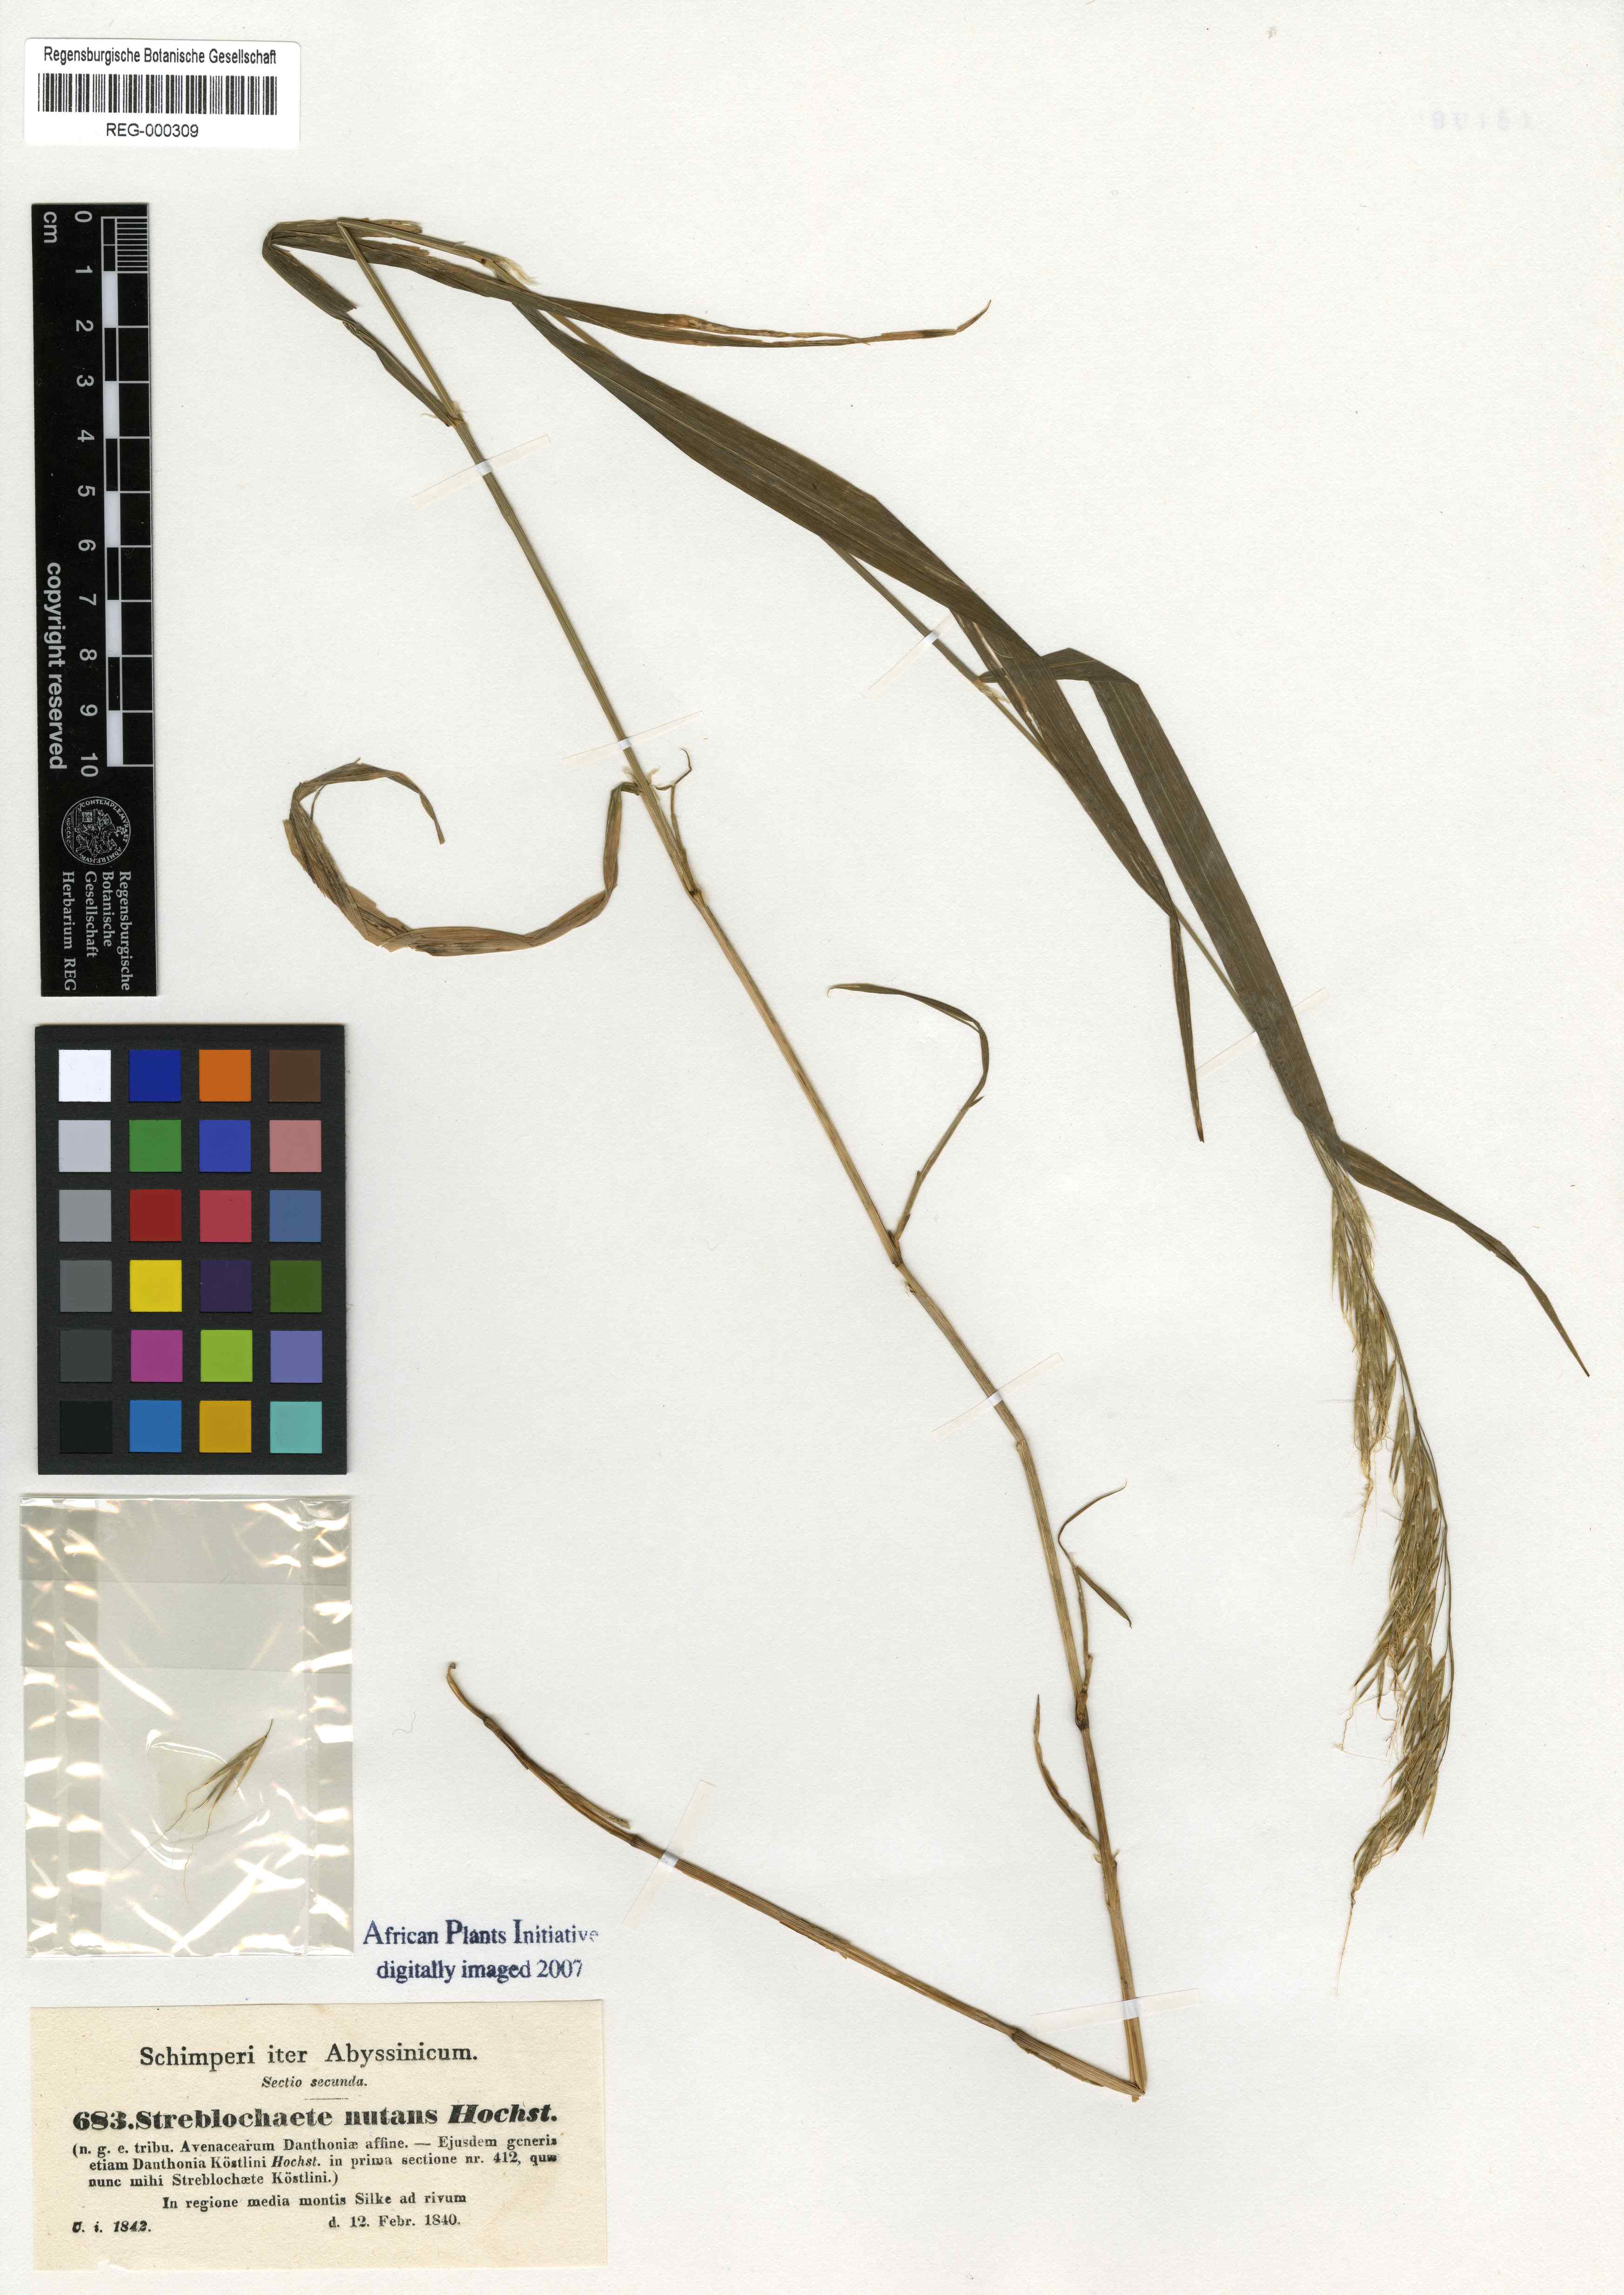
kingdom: Plantae
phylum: Tracheophyta
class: Liliopsida
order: Poales
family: Poaceae
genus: Streblochaete
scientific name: Streblochaete nutans
